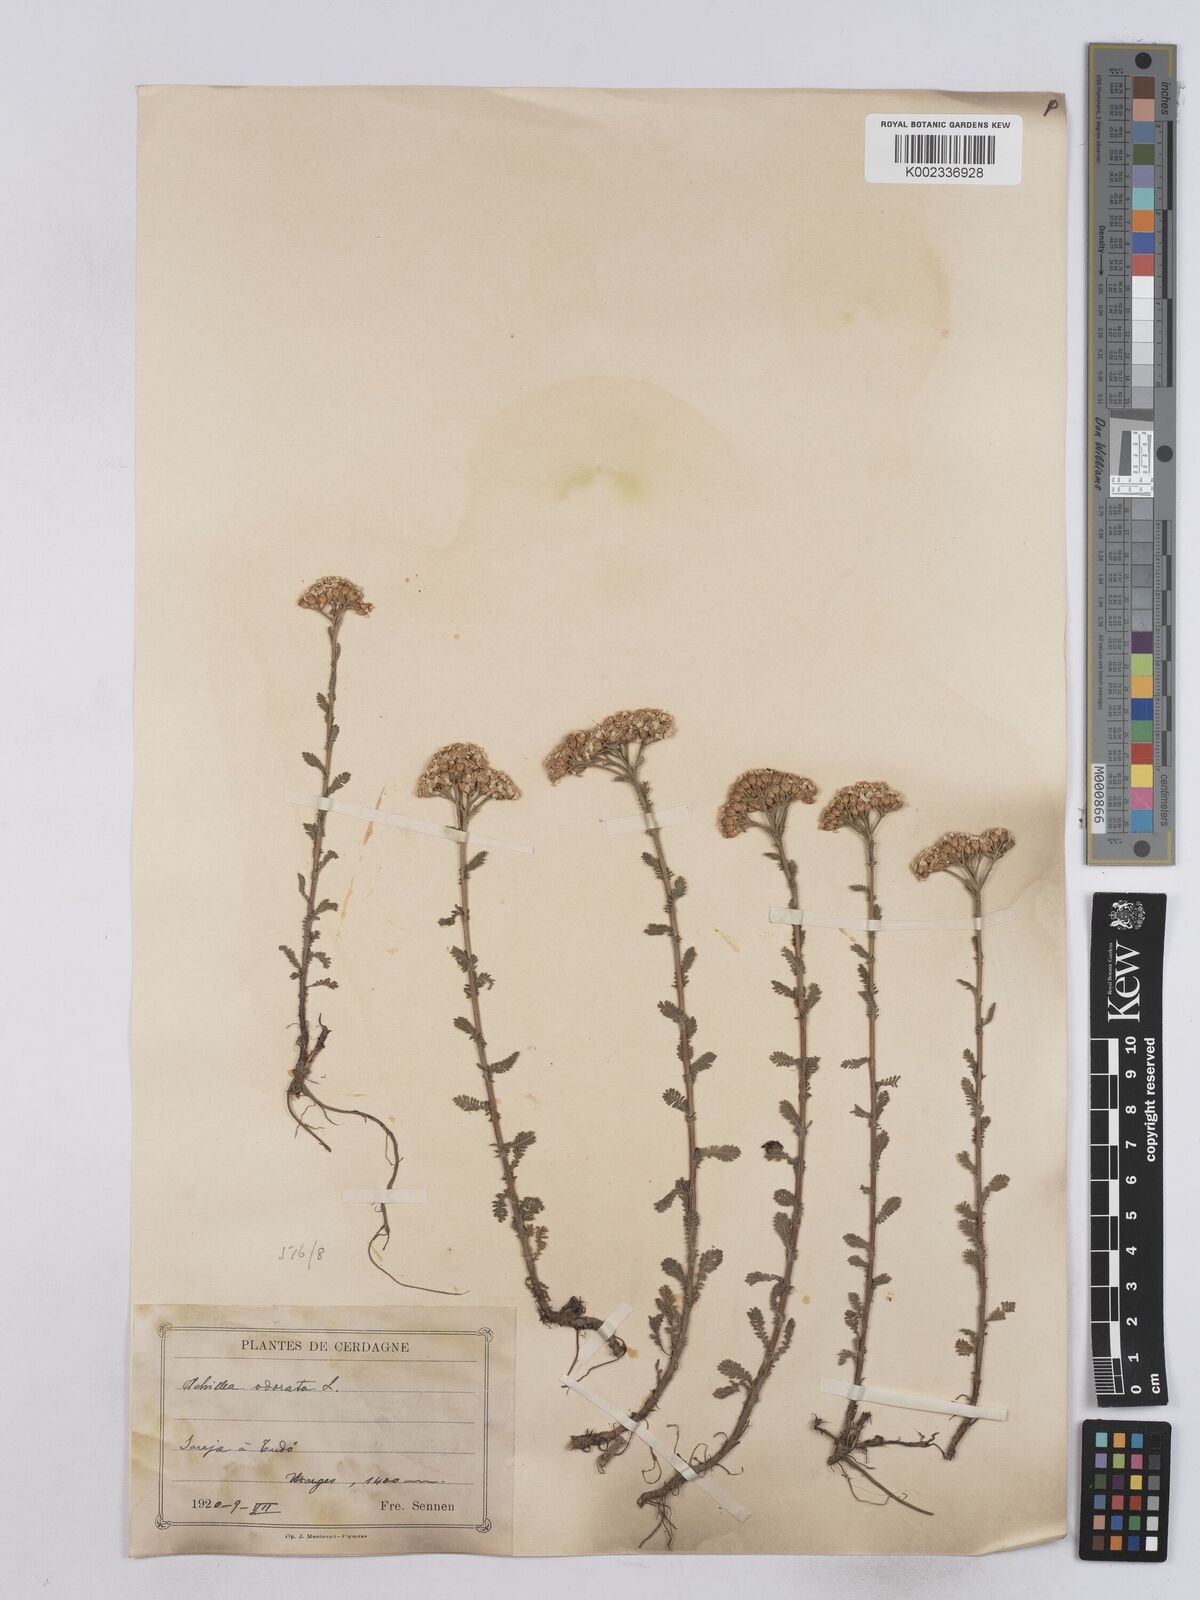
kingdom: Plantae
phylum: Tracheophyta
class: Magnoliopsida
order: Asterales
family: Asteraceae
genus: Achillea
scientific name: Achillea odorata
